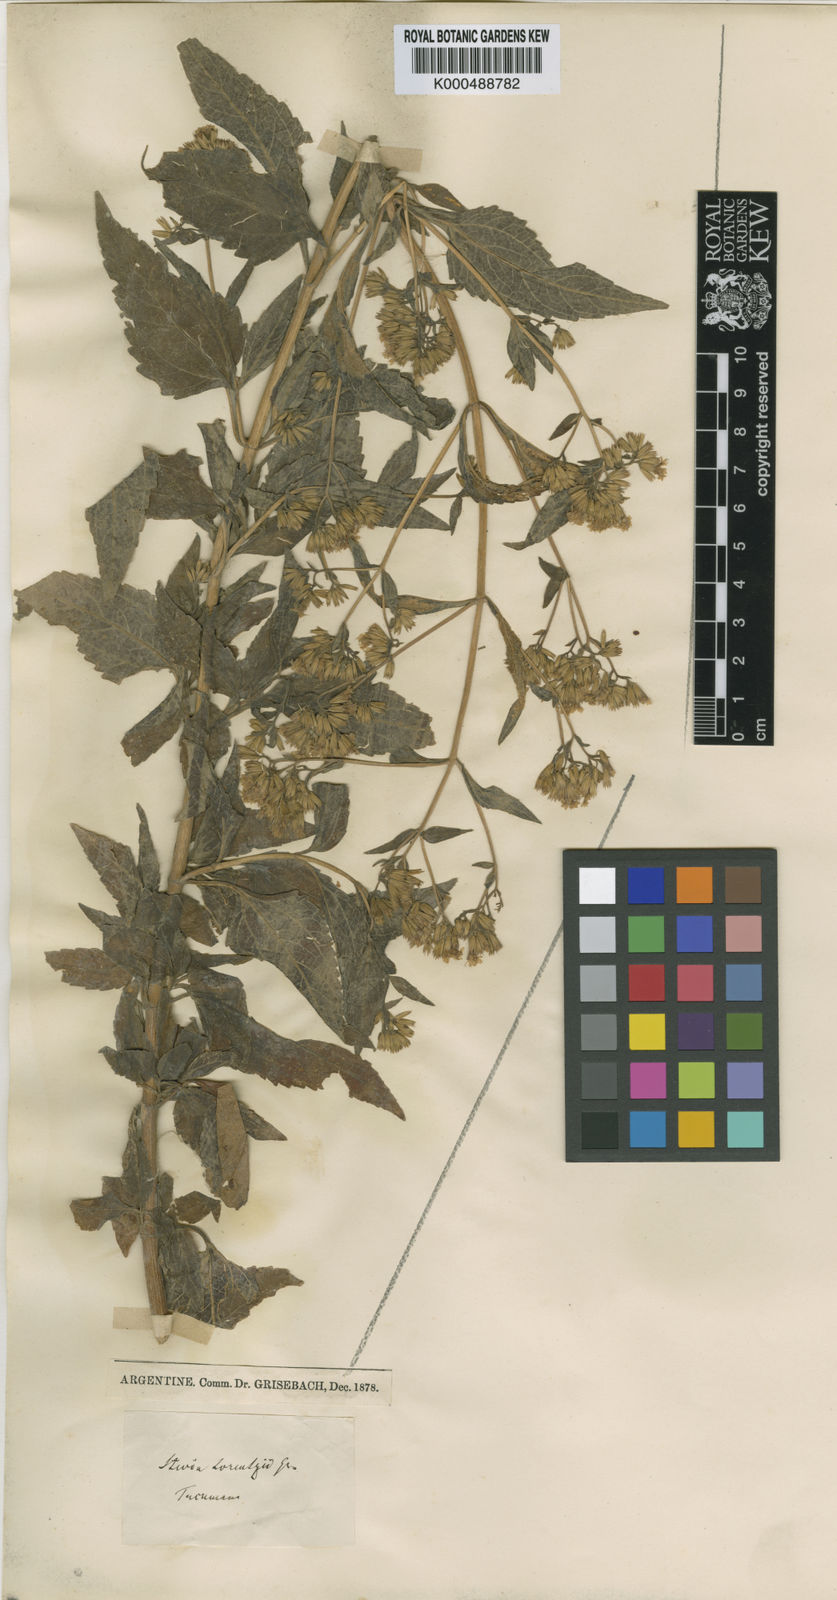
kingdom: Plantae
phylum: Tracheophyta
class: Magnoliopsida
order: Asterales
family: Asteraceae
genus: Stevia
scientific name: Stevia breviaristata
